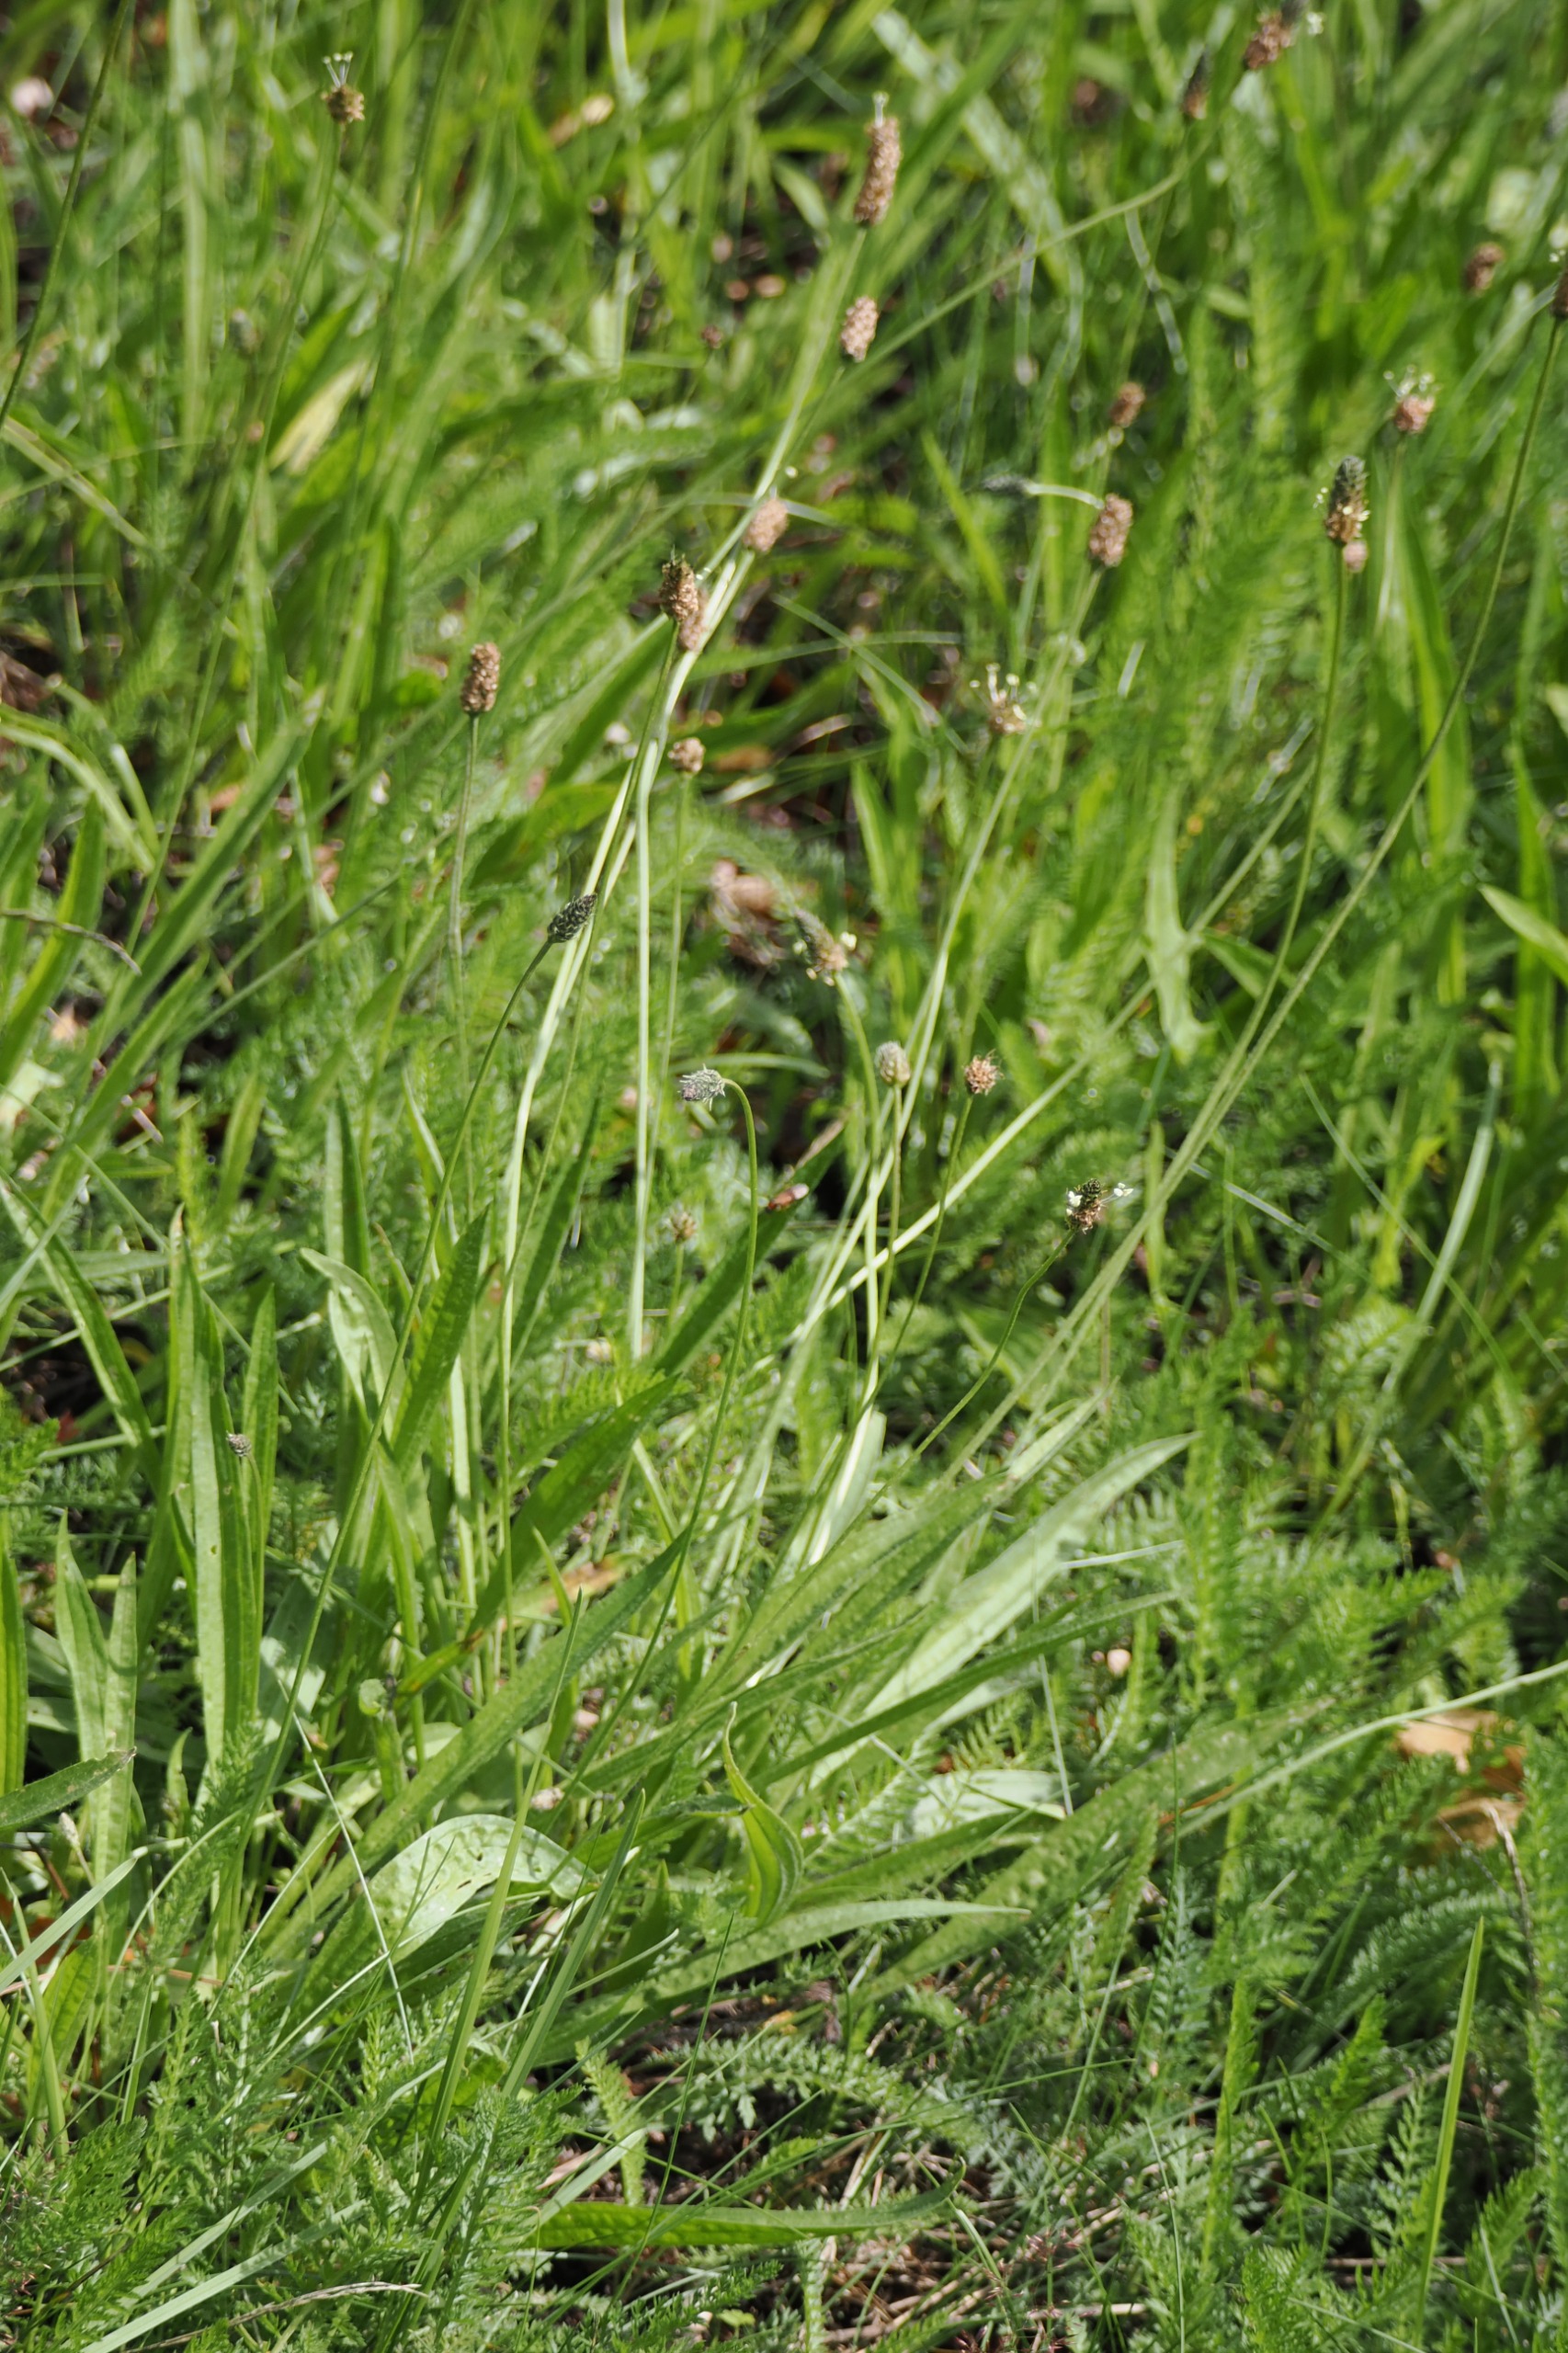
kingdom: Plantae
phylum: Tracheophyta
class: Magnoliopsida
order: Lamiales
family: Plantaginaceae
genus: Plantago
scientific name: Plantago lanceolata
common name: Lancet-vejbred
